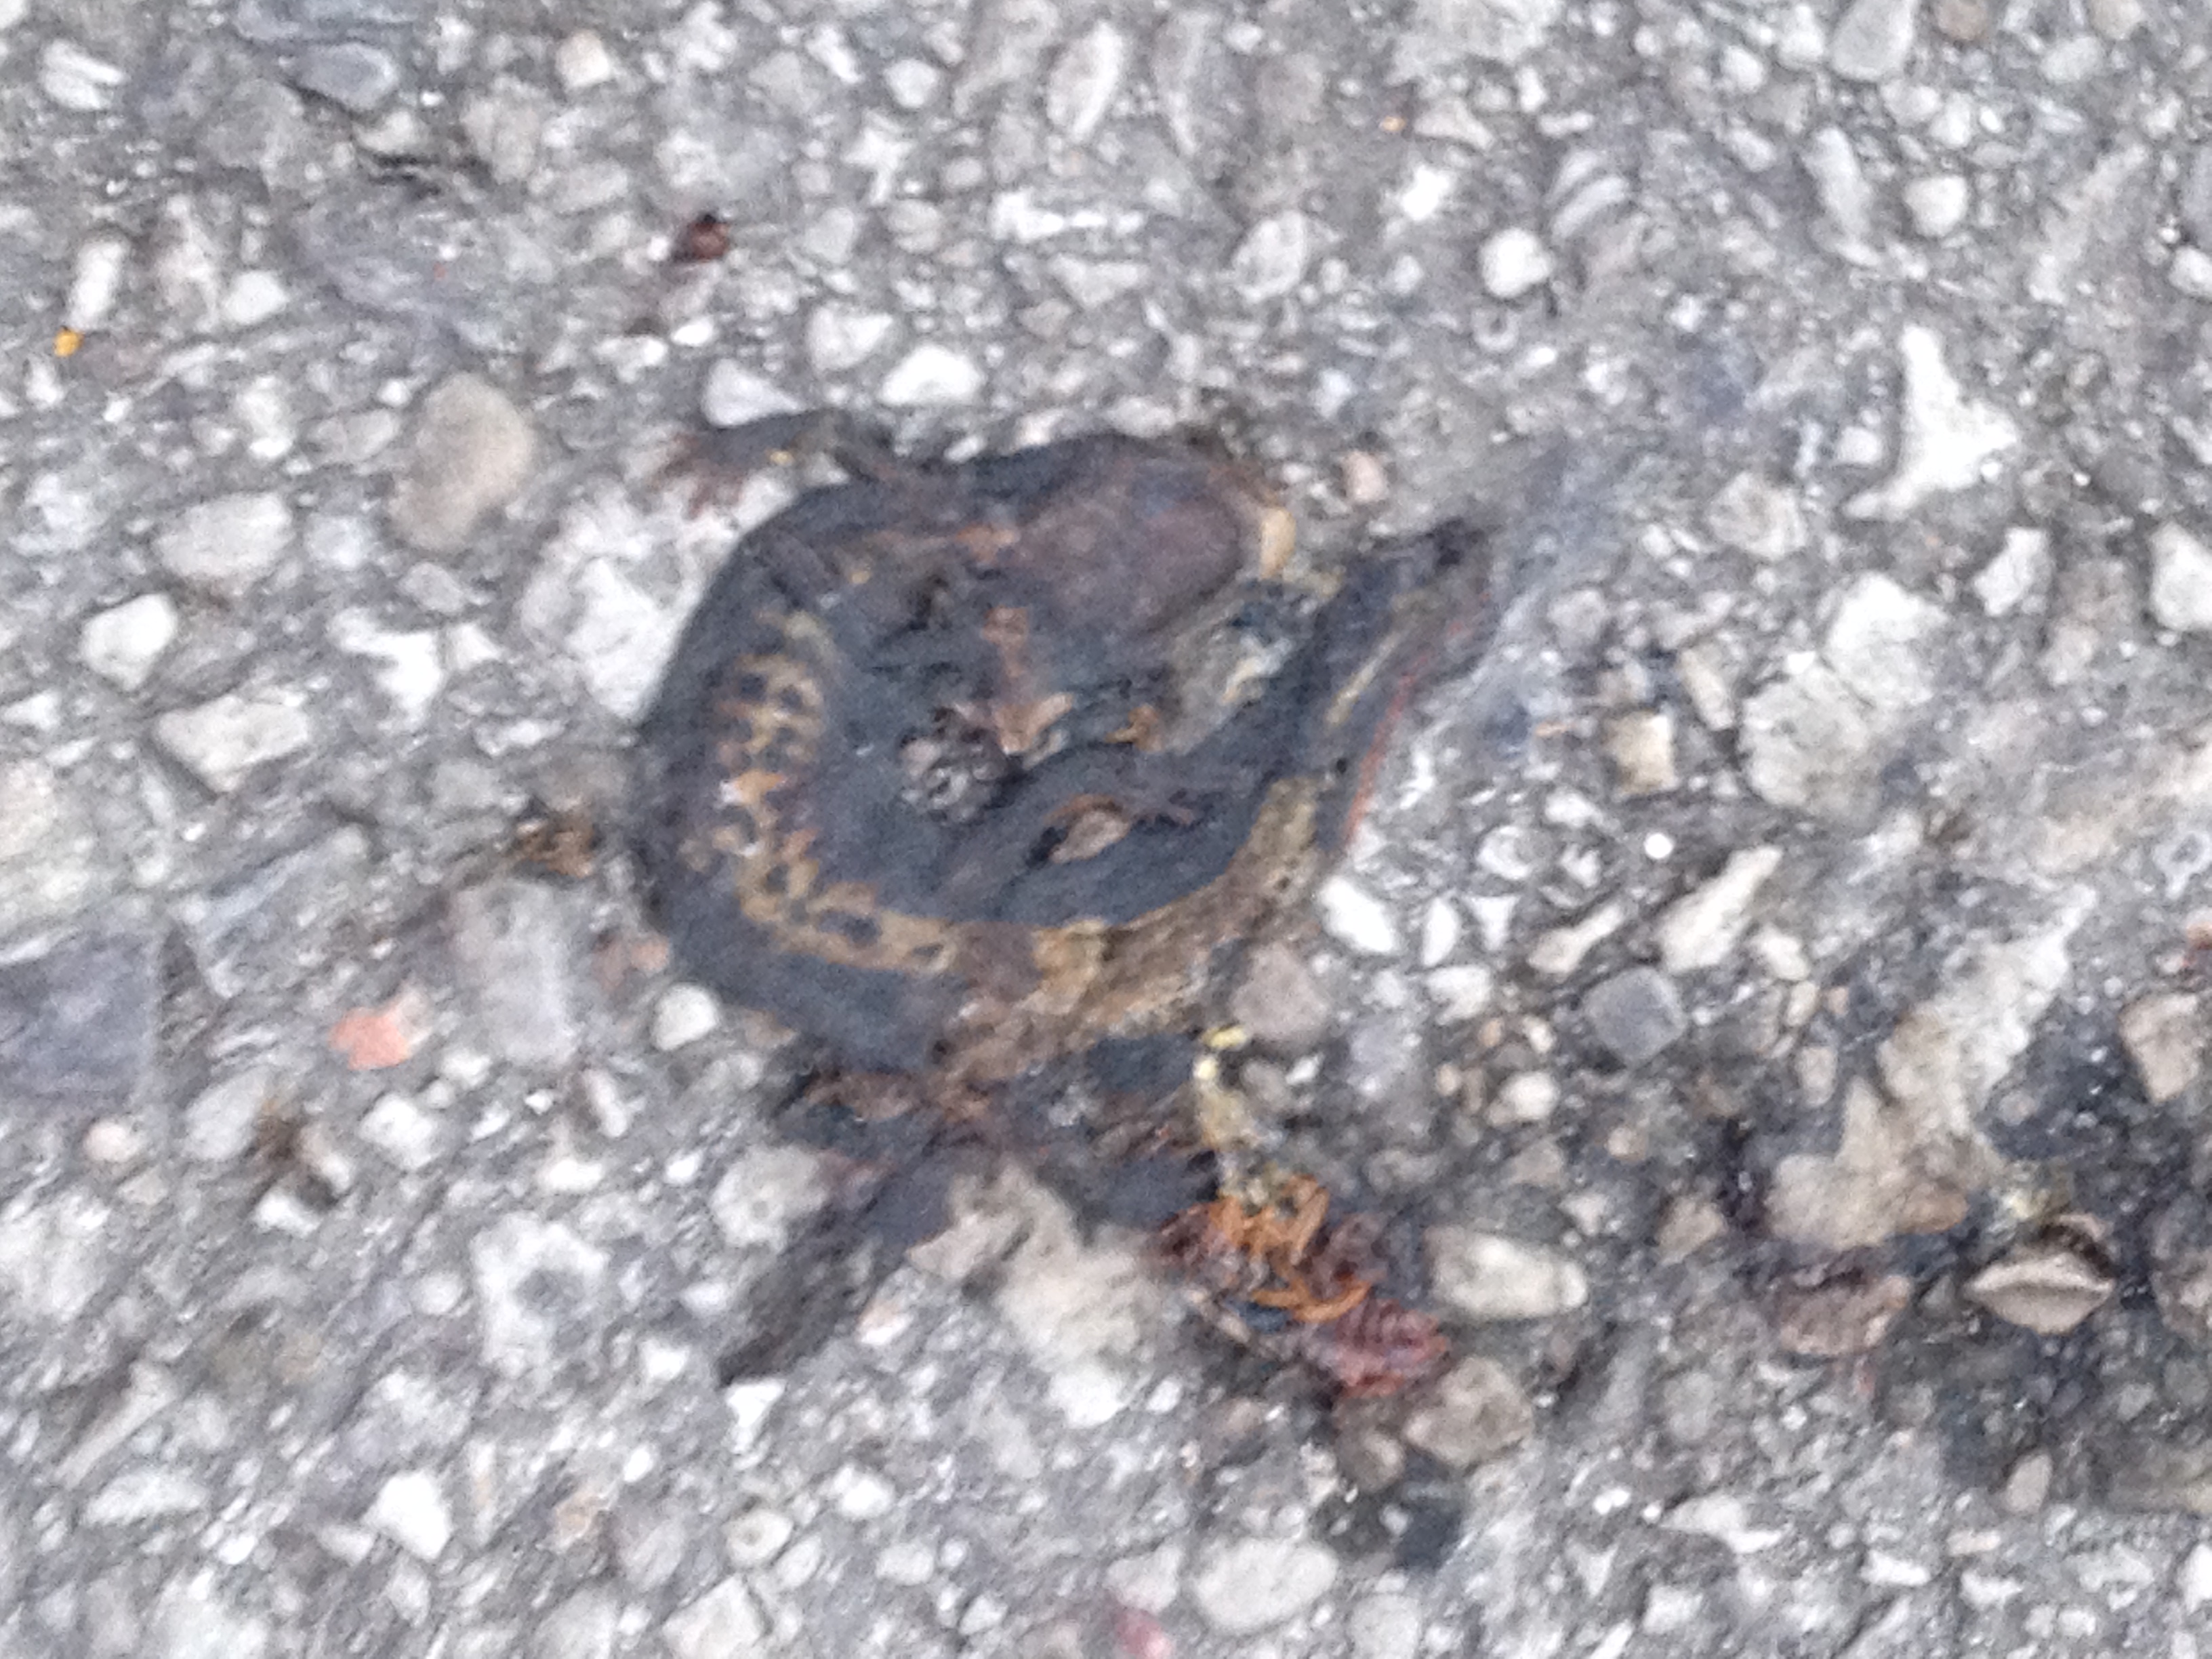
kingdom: Animalia
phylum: Chordata
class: Amphibia
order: Caudata
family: Salamandridae
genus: Triturus
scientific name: Triturus dobrogicus
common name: Danube crested newt
